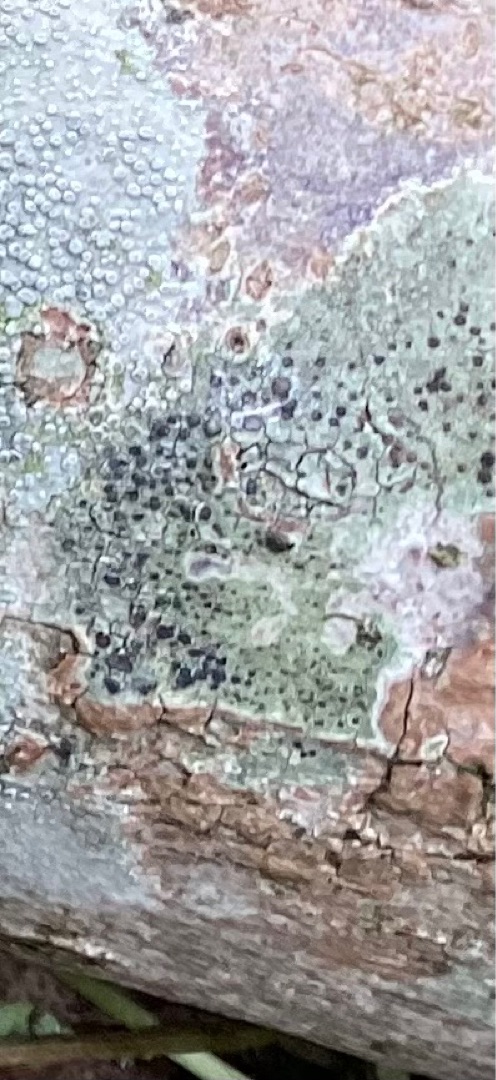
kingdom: Fungi
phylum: Ascomycota
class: Lecanoromycetes
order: Lecanorales
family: Lecanoraceae
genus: Lecidella
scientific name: Lecidella elaeochroma
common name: Grågrøn skivelav
